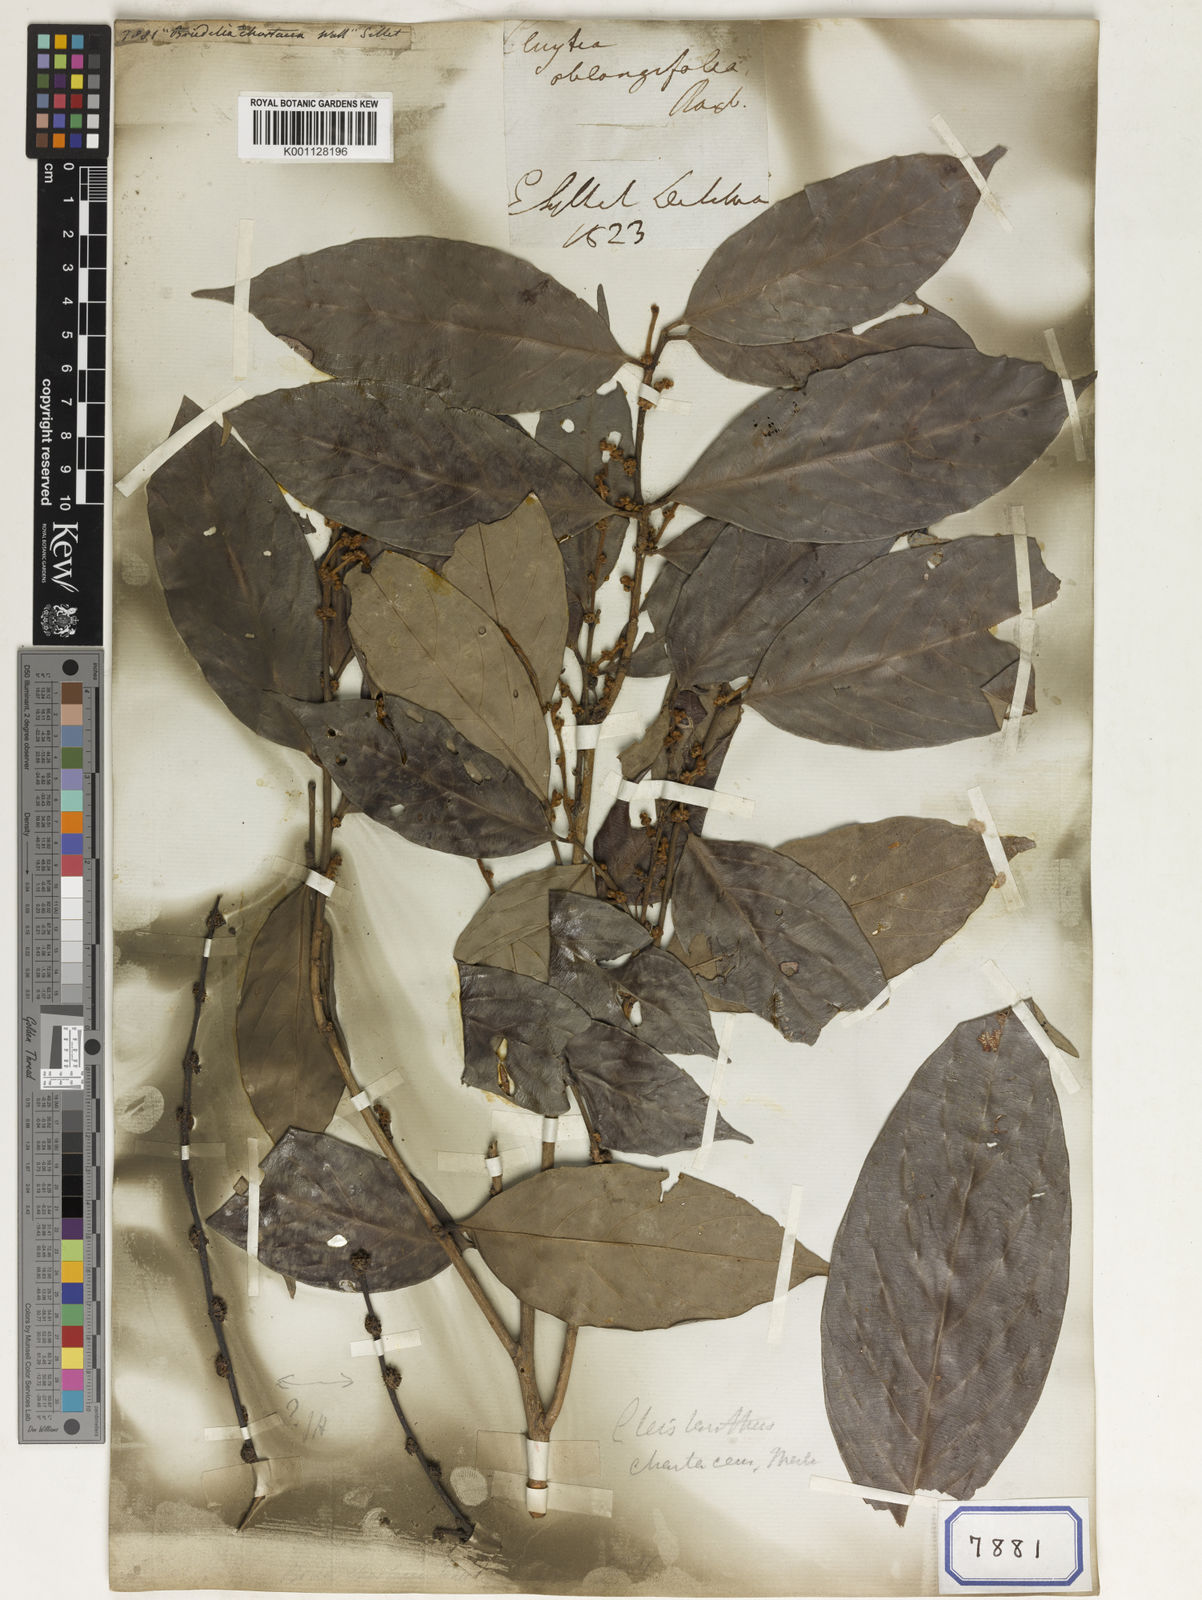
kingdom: Plantae
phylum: Tracheophyta
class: Magnoliopsida
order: Malpighiales
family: Euphorbiaceae
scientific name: Euphorbiaceae
